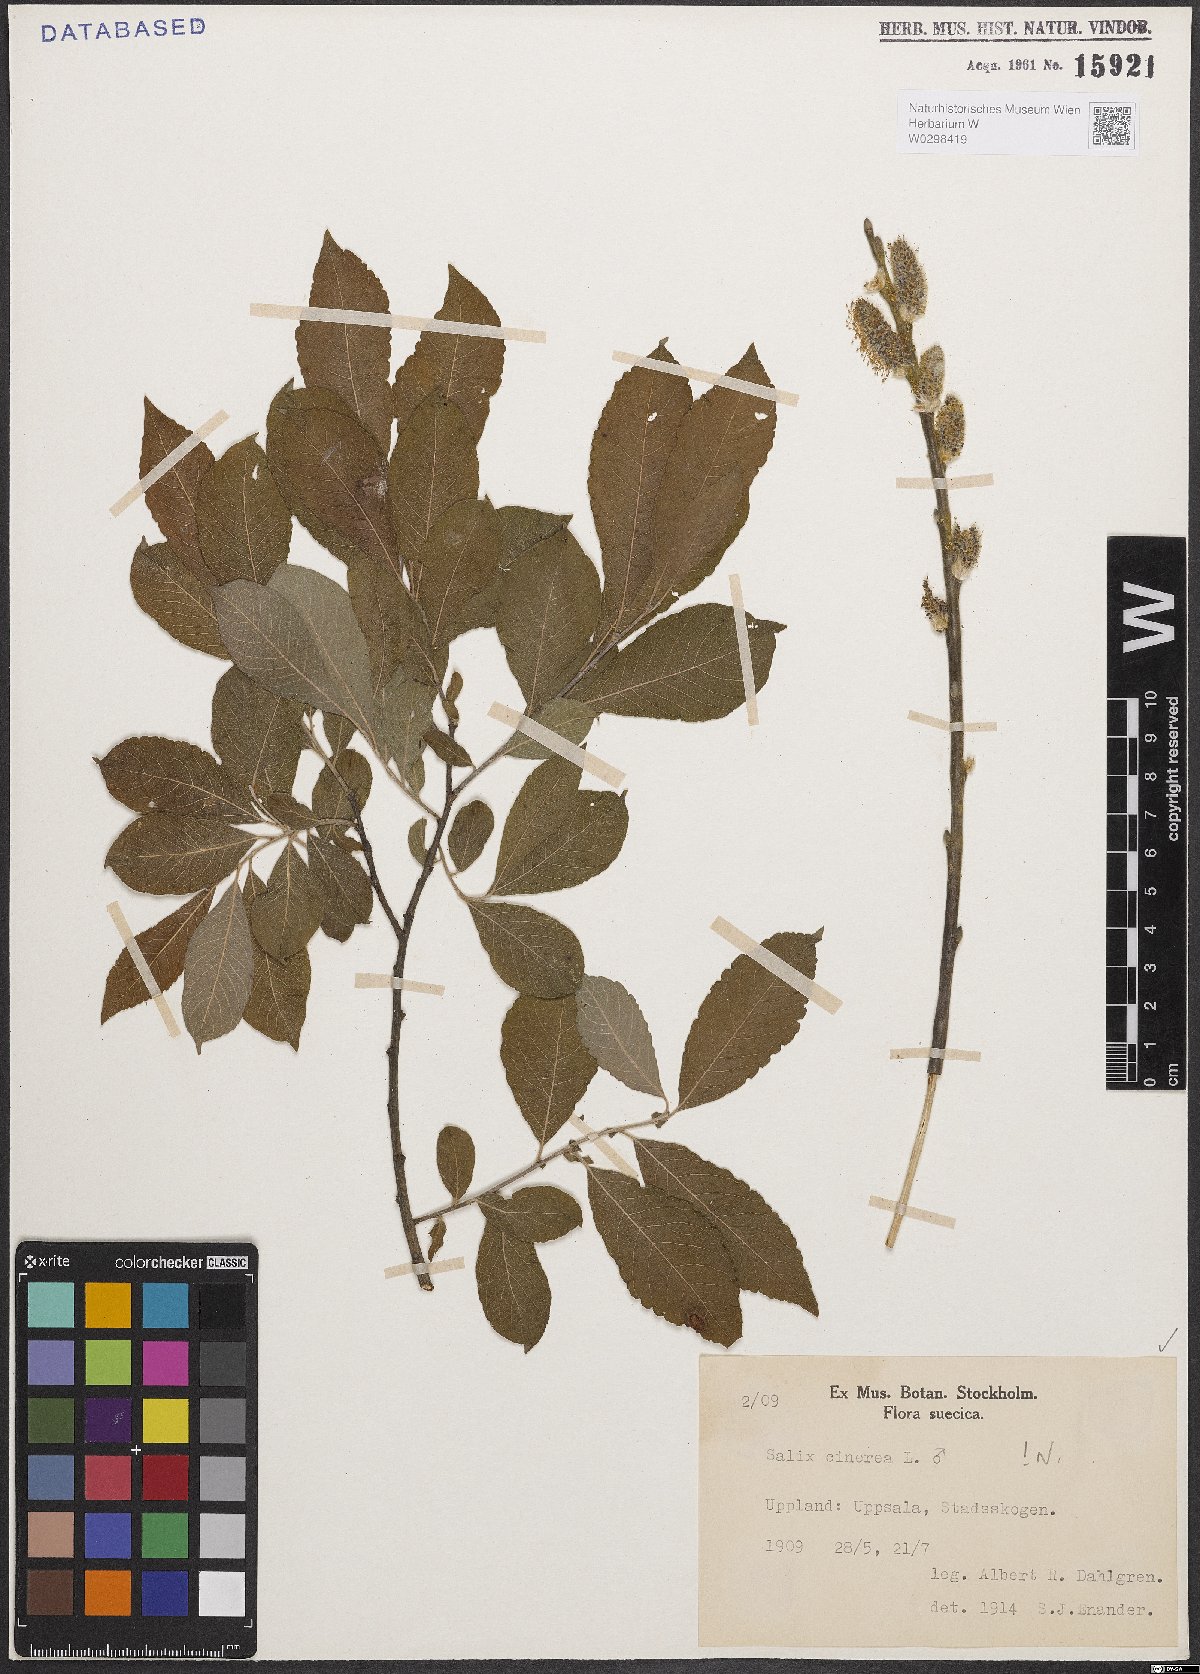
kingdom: Plantae
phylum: Tracheophyta
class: Magnoliopsida
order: Malpighiales
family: Salicaceae
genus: Salix
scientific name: Salix cinerea
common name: Common sallow
